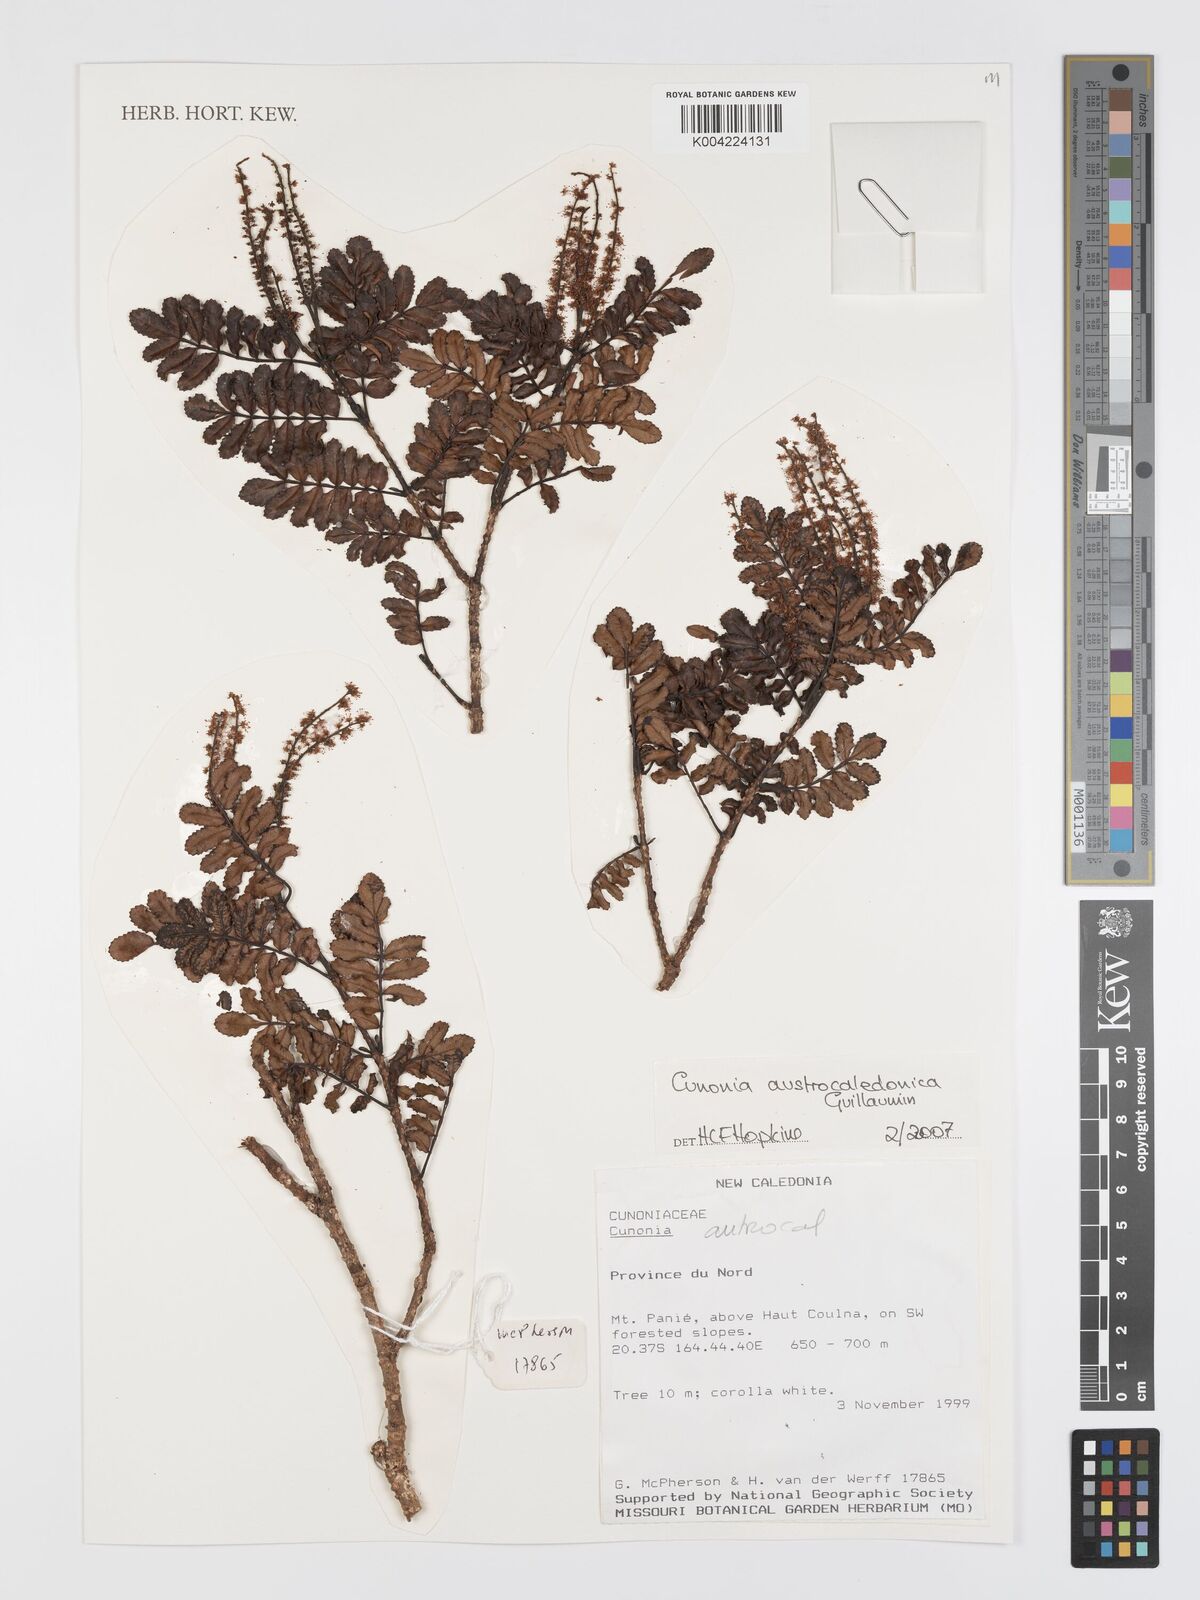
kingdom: Plantae
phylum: Tracheophyta
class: Magnoliopsida
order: Oxalidales
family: Cunoniaceae
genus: Cunonia
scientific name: Cunonia austrocaledonica
